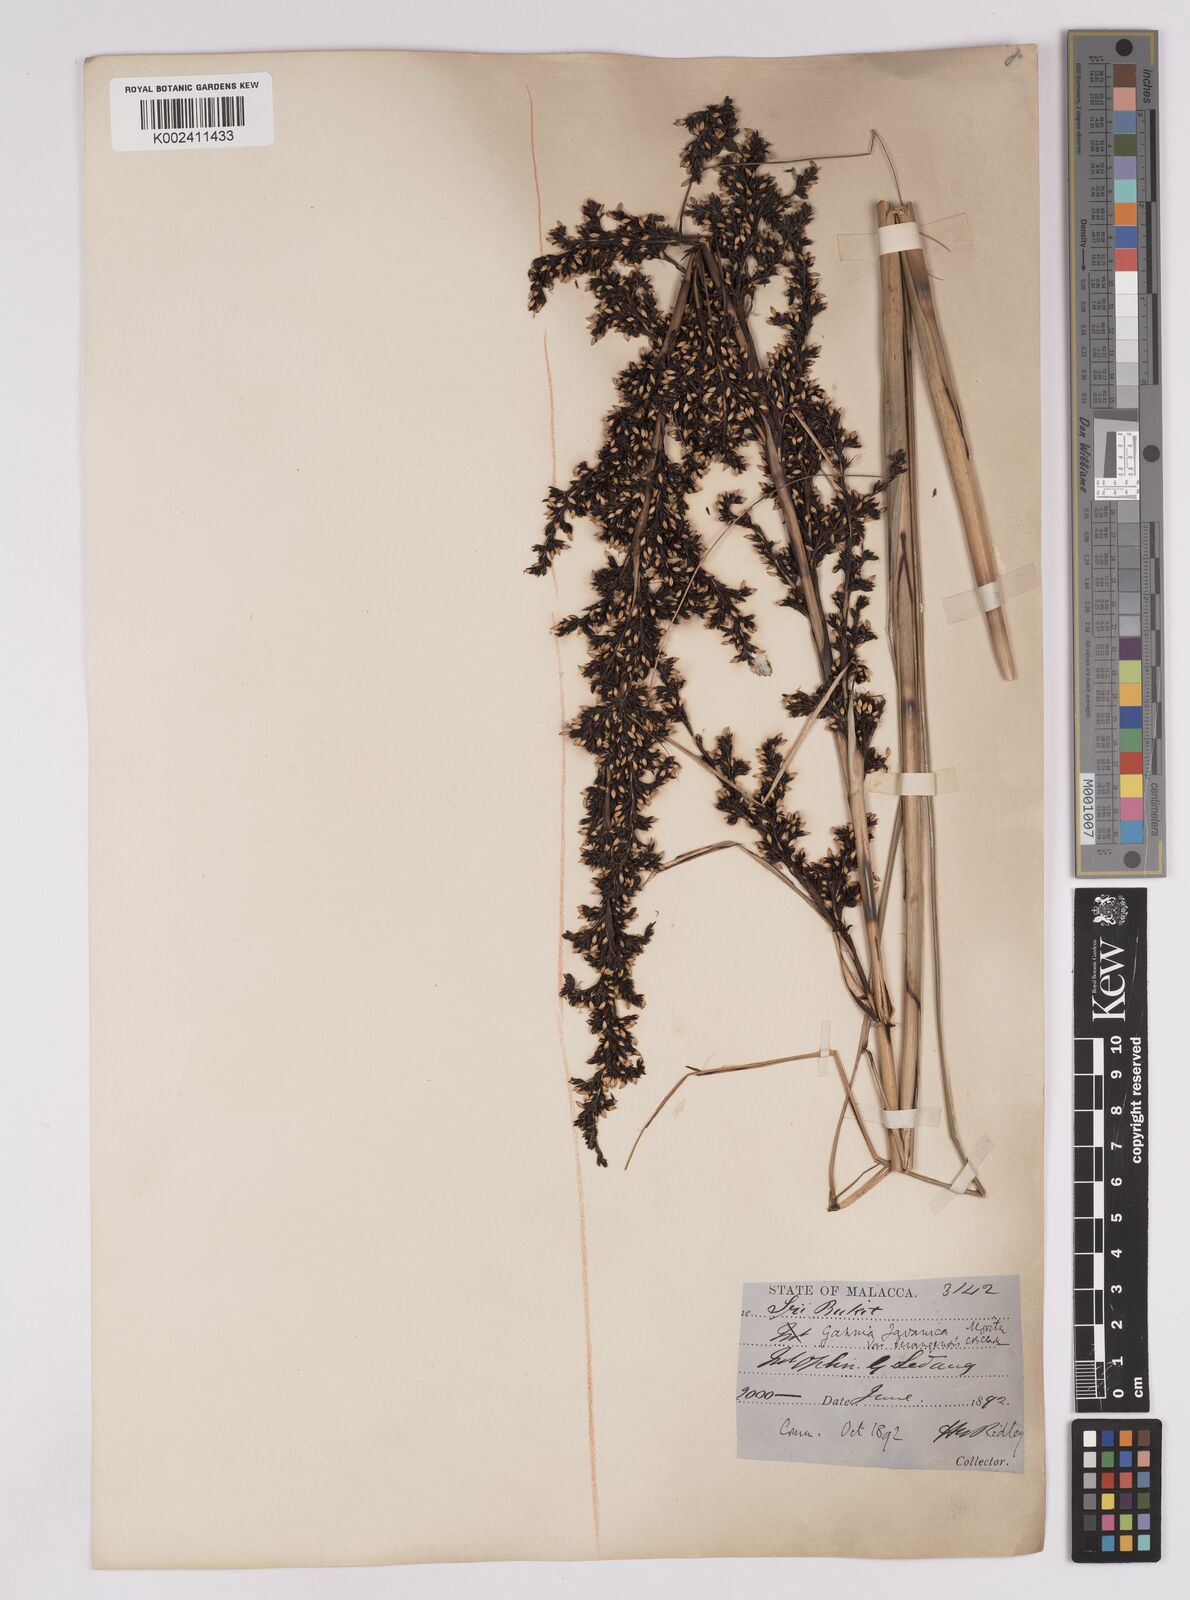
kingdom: Plantae
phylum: Tracheophyta
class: Liliopsida
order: Poales
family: Cyperaceae
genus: Gahnia
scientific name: Gahnia baniensis
